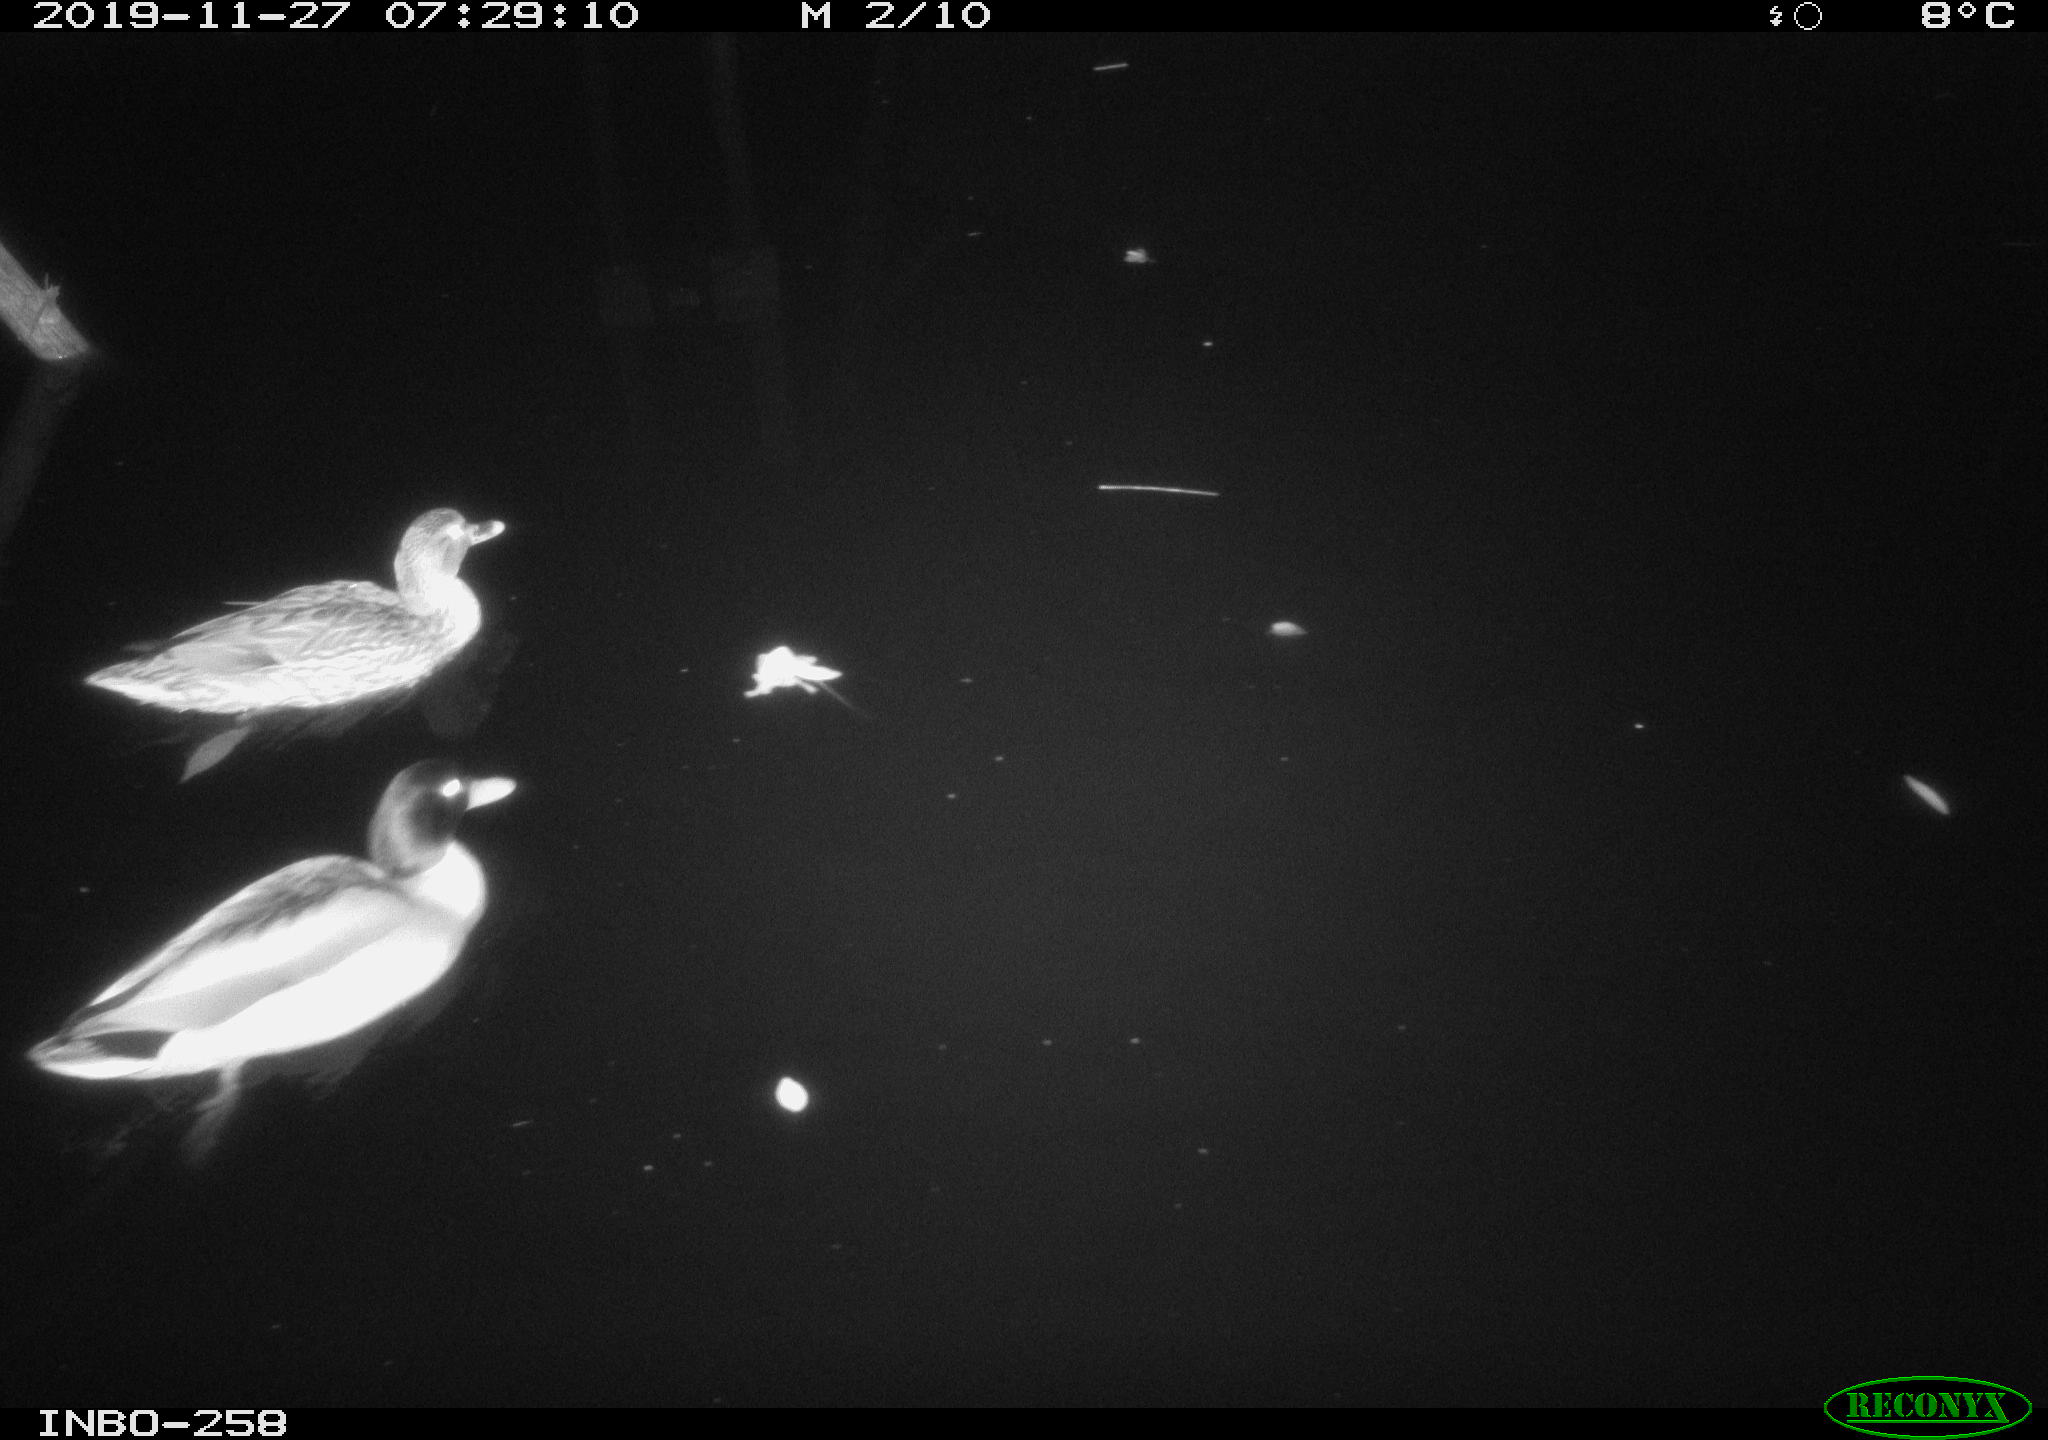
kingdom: Animalia
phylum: Chordata
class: Aves
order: Anseriformes
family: Anatidae
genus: Anas
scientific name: Anas platyrhynchos
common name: Mallard
